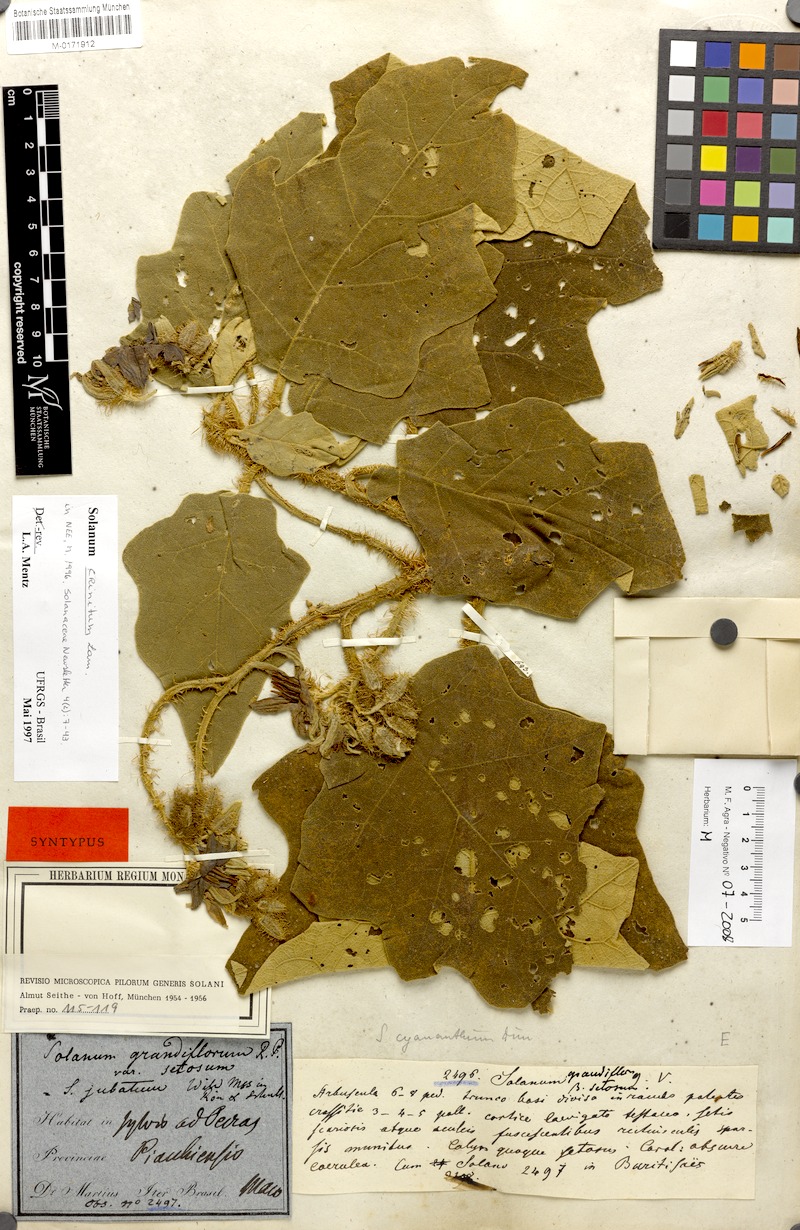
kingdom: Plantae
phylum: Tracheophyta
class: Magnoliopsida
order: Solanales
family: Solanaceae
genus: Solanum
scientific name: Solanum crinitum
